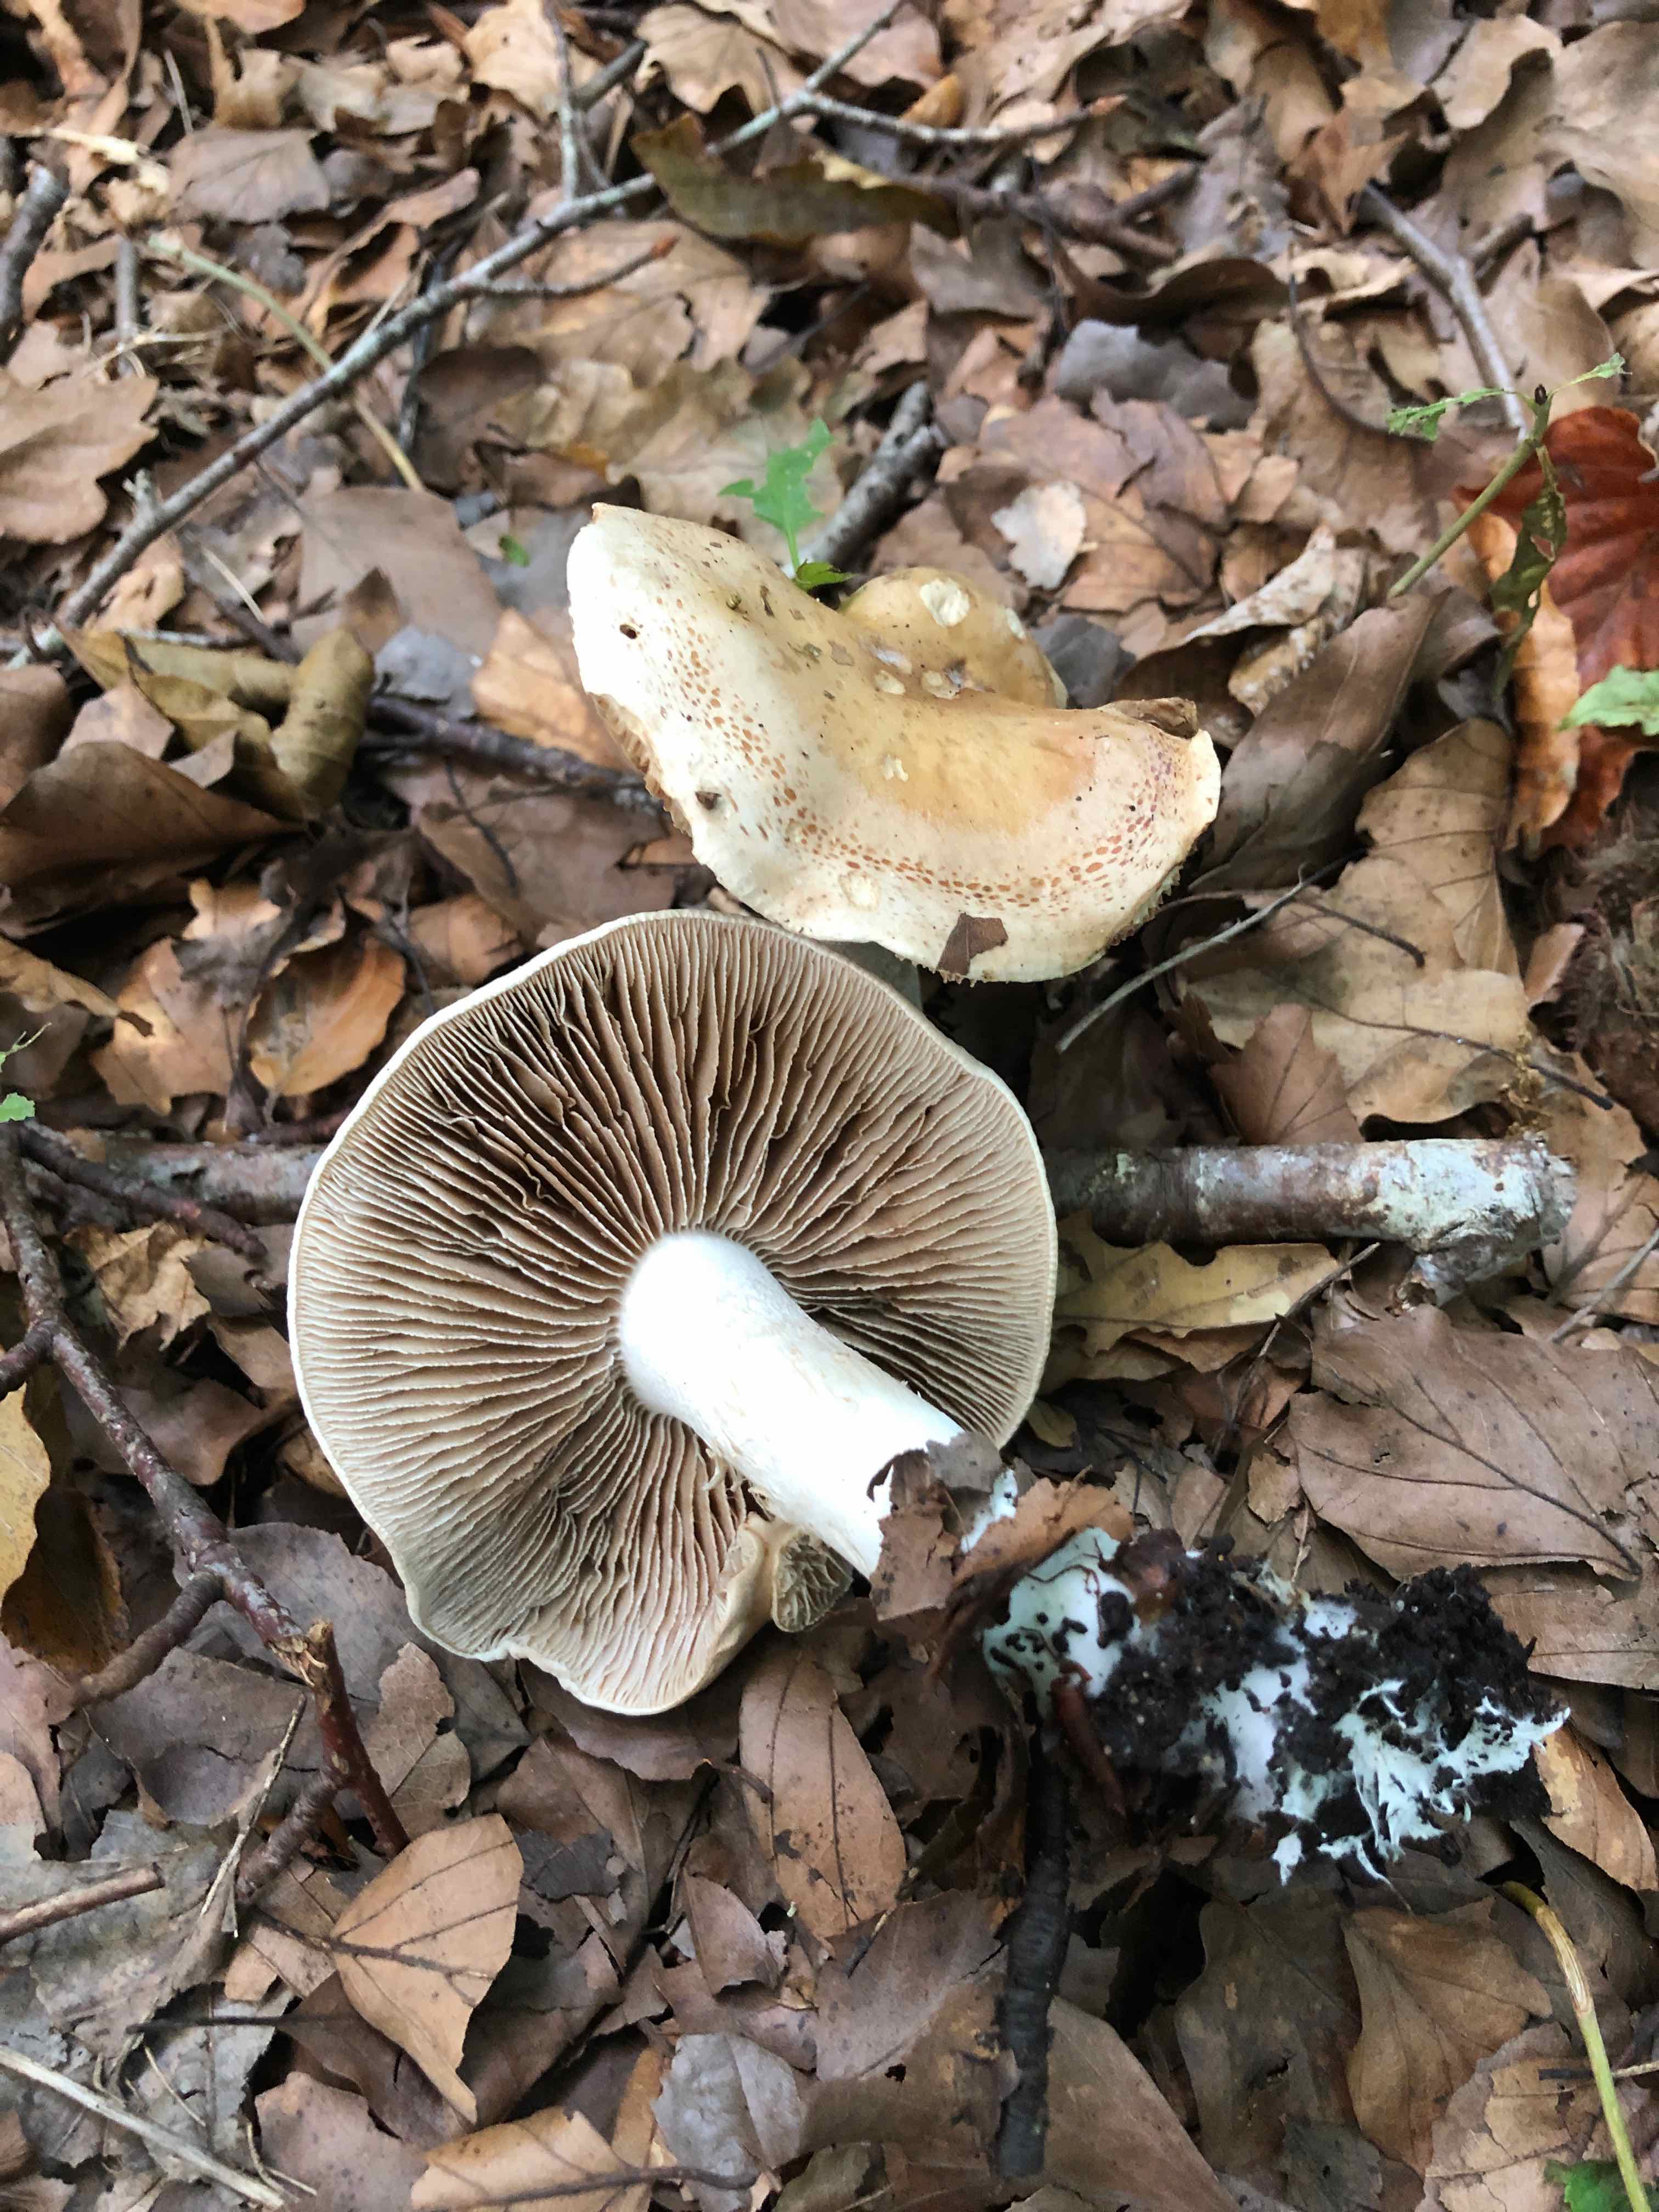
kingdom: Fungi
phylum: Basidiomycota
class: Agaricomycetes
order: Agaricales
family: Hymenogastraceae
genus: Hebeloma
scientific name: Hebeloma sinapizans
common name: ræddike-tåreblad
